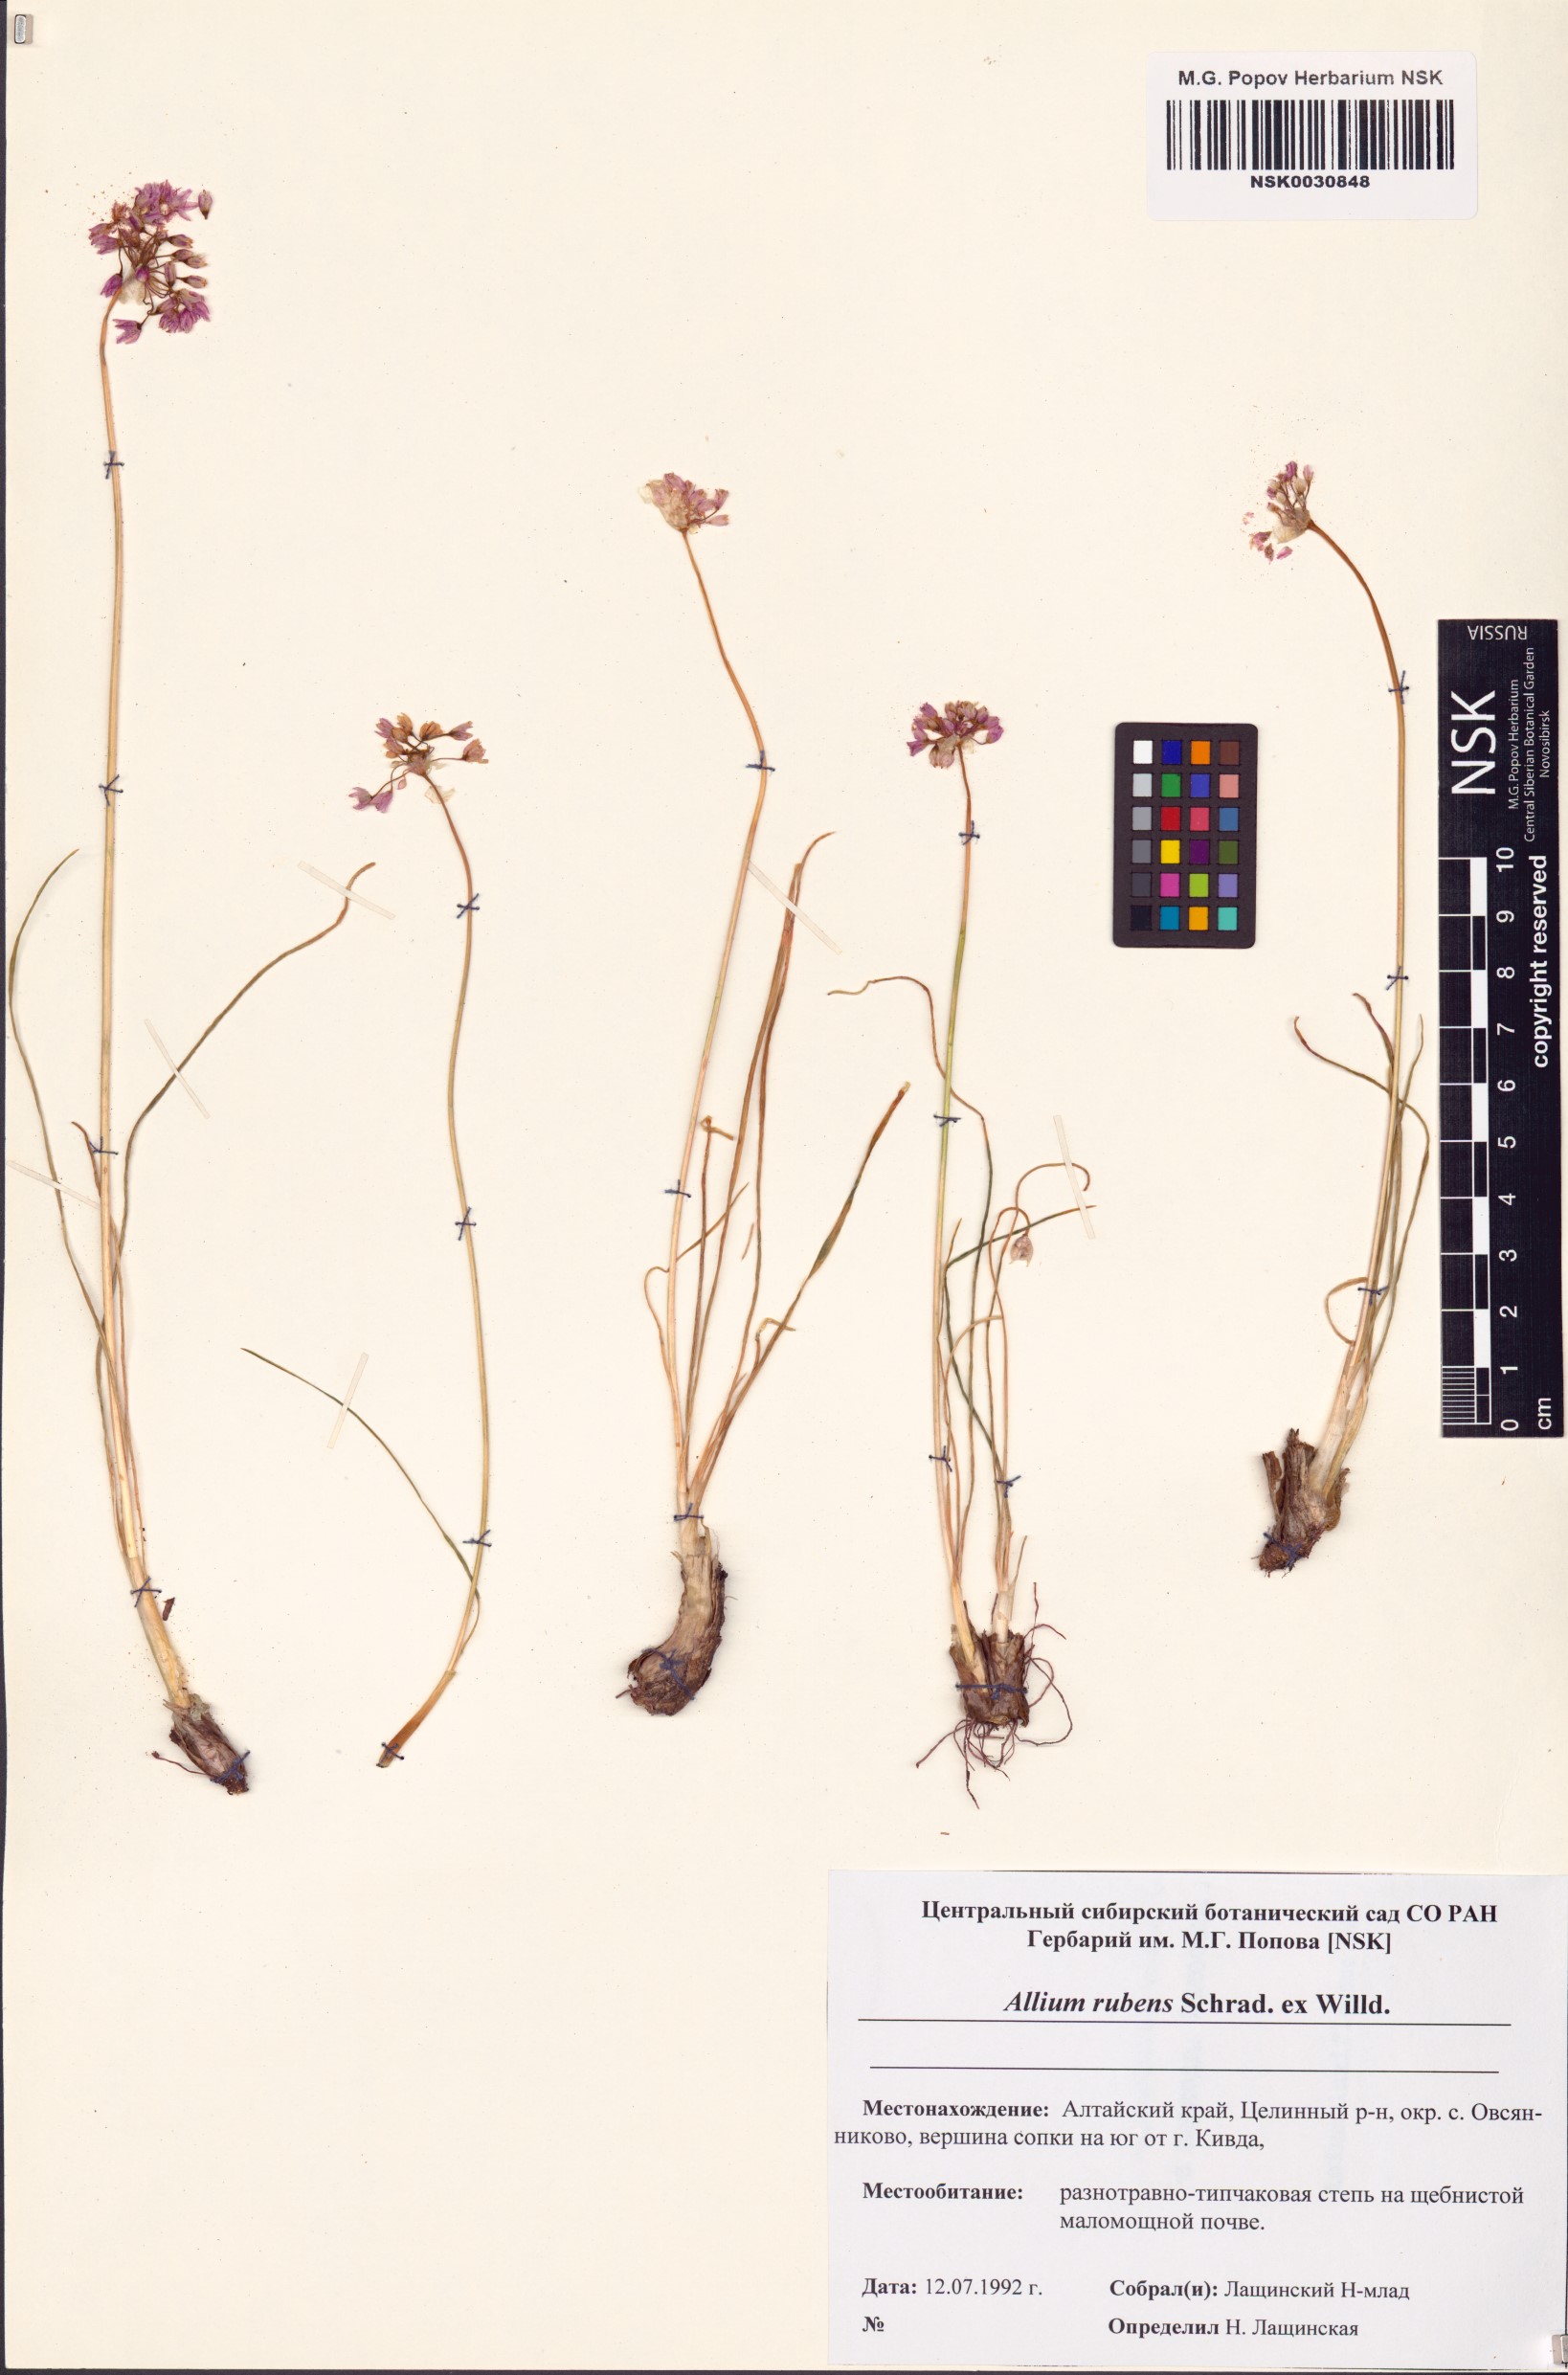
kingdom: Plantae
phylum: Tracheophyta
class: Liliopsida
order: Asparagales
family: Amaryllidaceae
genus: Allium
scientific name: Allium rubens
